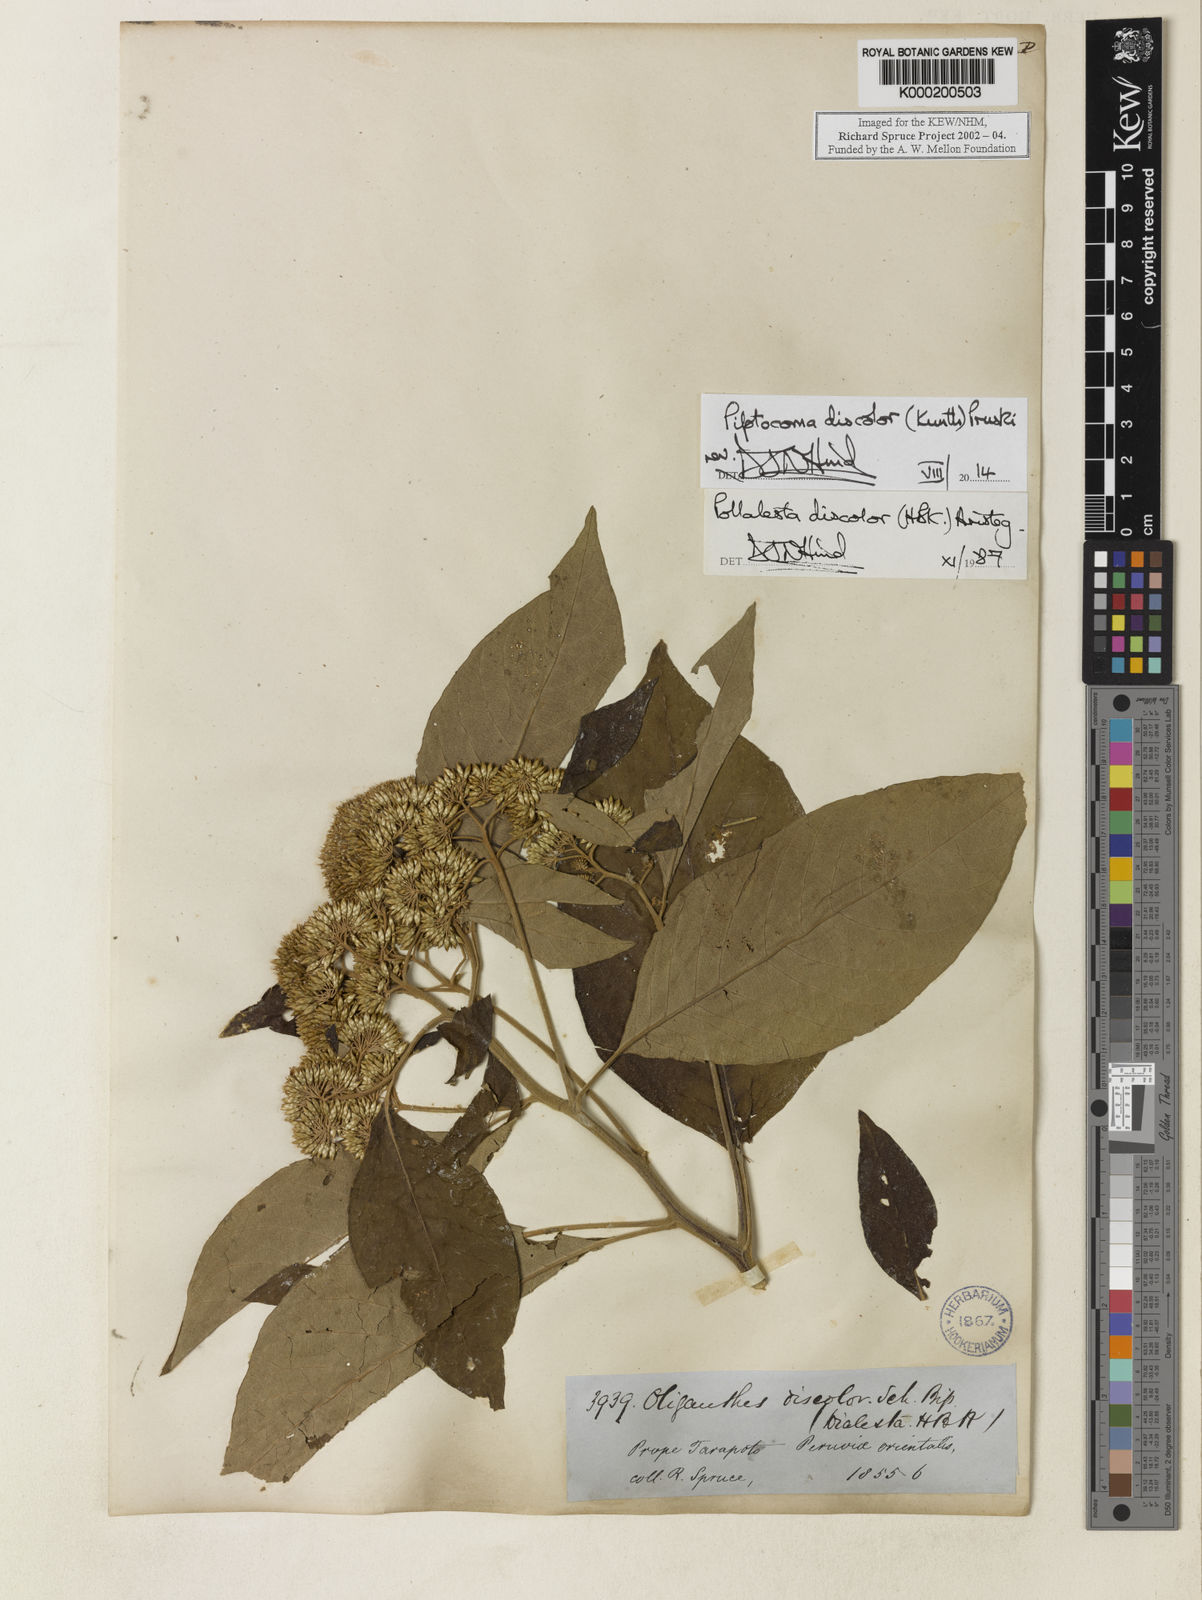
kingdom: Plantae
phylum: Tracheophyta
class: Magnoliopsida
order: Asterales
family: Asteraceae
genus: Piptocoma
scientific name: Piptocoma discolor
